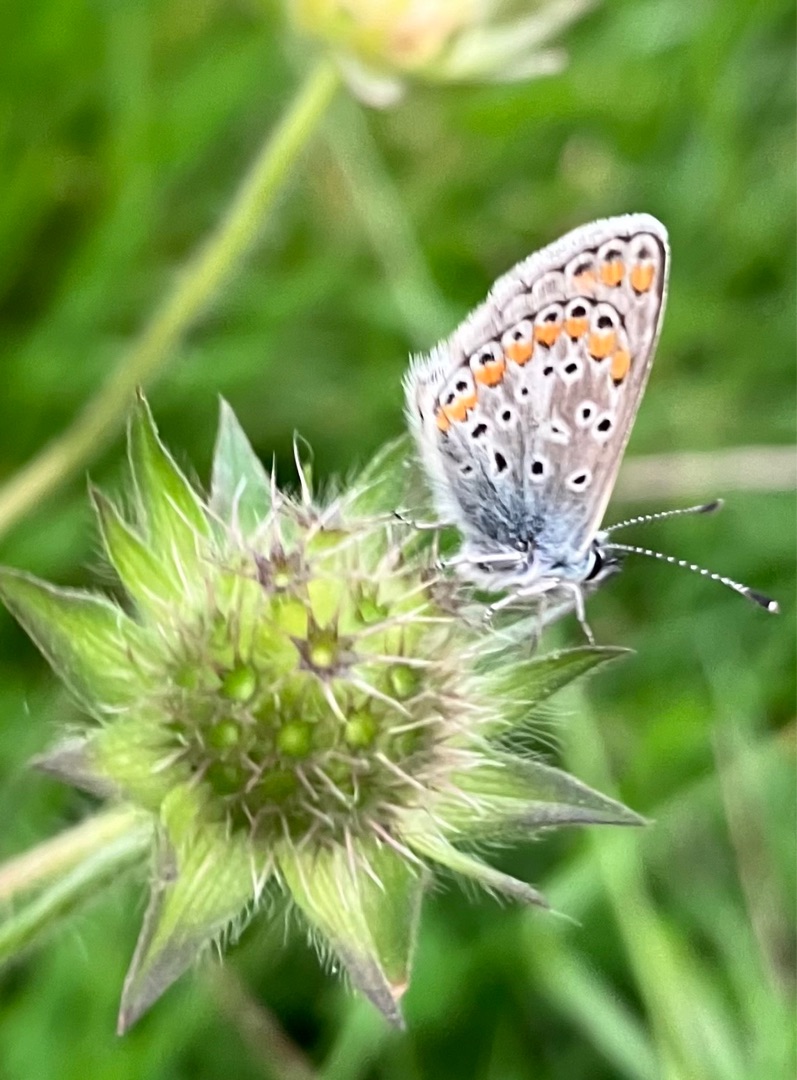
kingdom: Animalia
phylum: Arthropoda
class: Insecta
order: Lepidoptera
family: Lycaenidae
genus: Aricia
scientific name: Aricia agestis
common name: Rødplettet blåfugl
